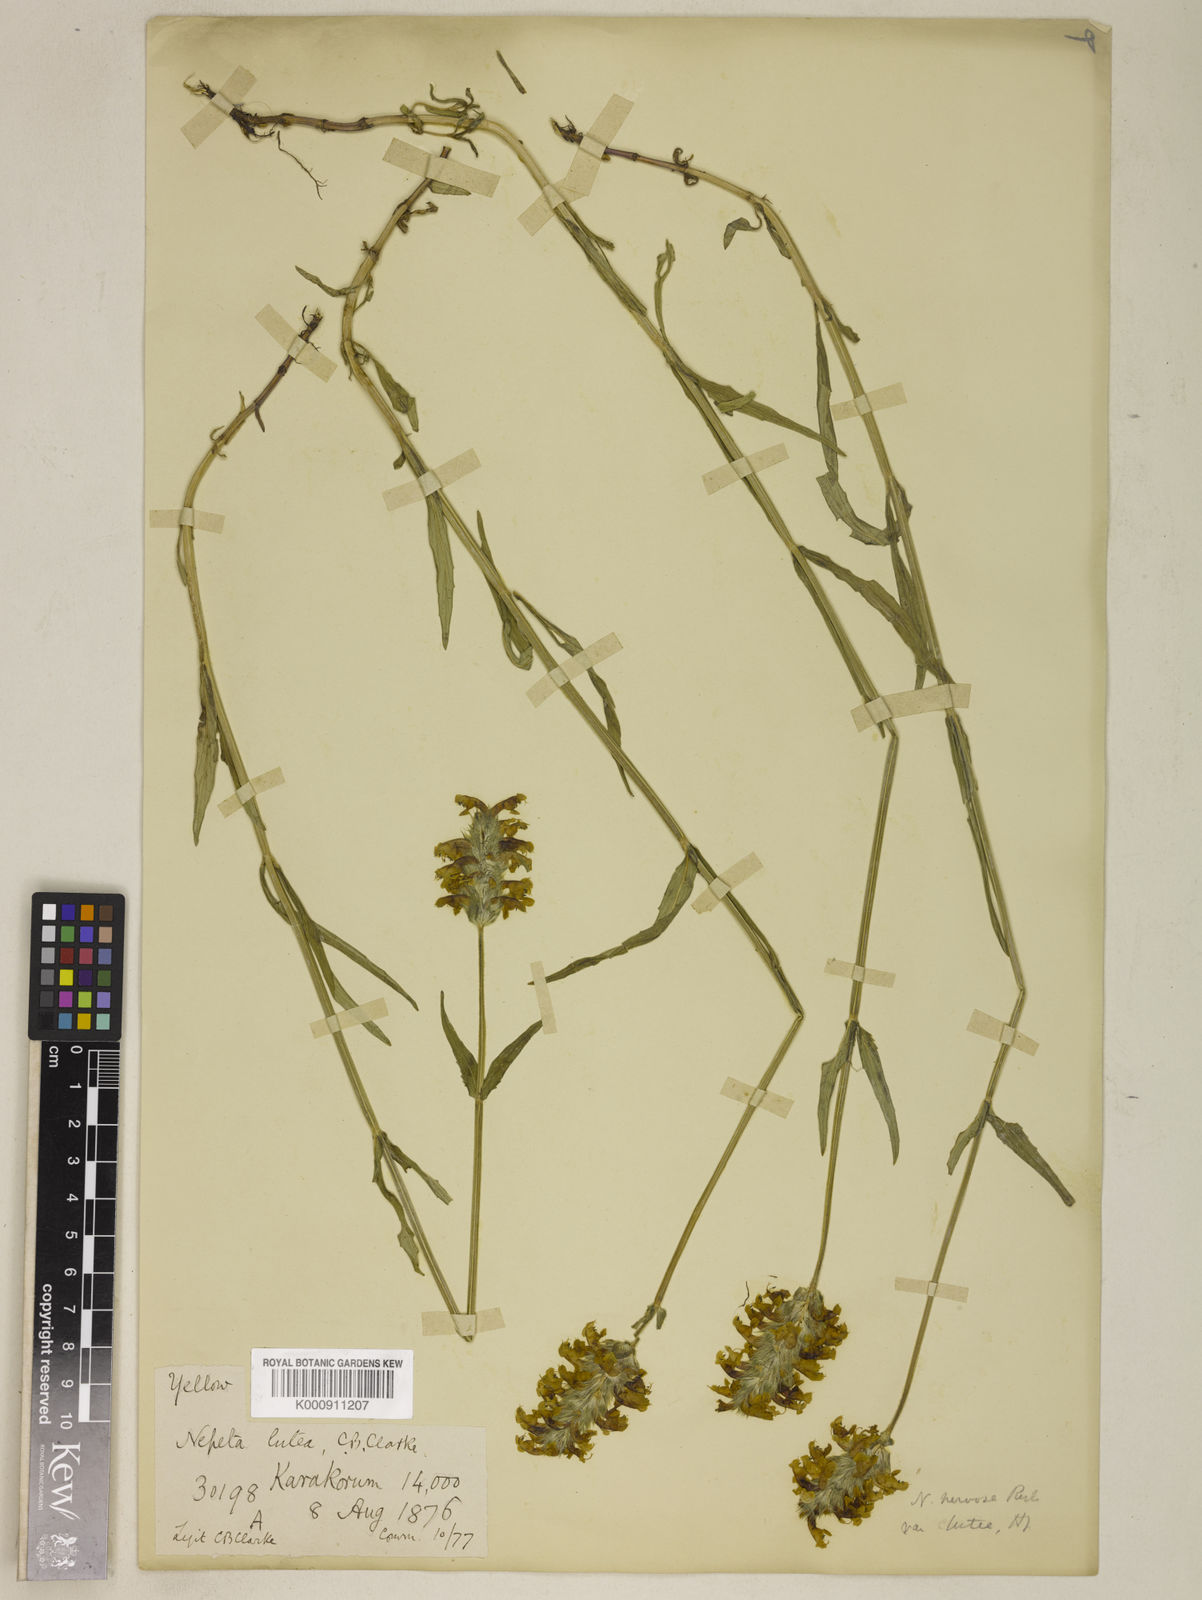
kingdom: Plantae
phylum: Tracheophyta
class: Magnoliopsida
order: Lamiales
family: Lamiaceae
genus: Nepeta
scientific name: Nepeta nervosa
